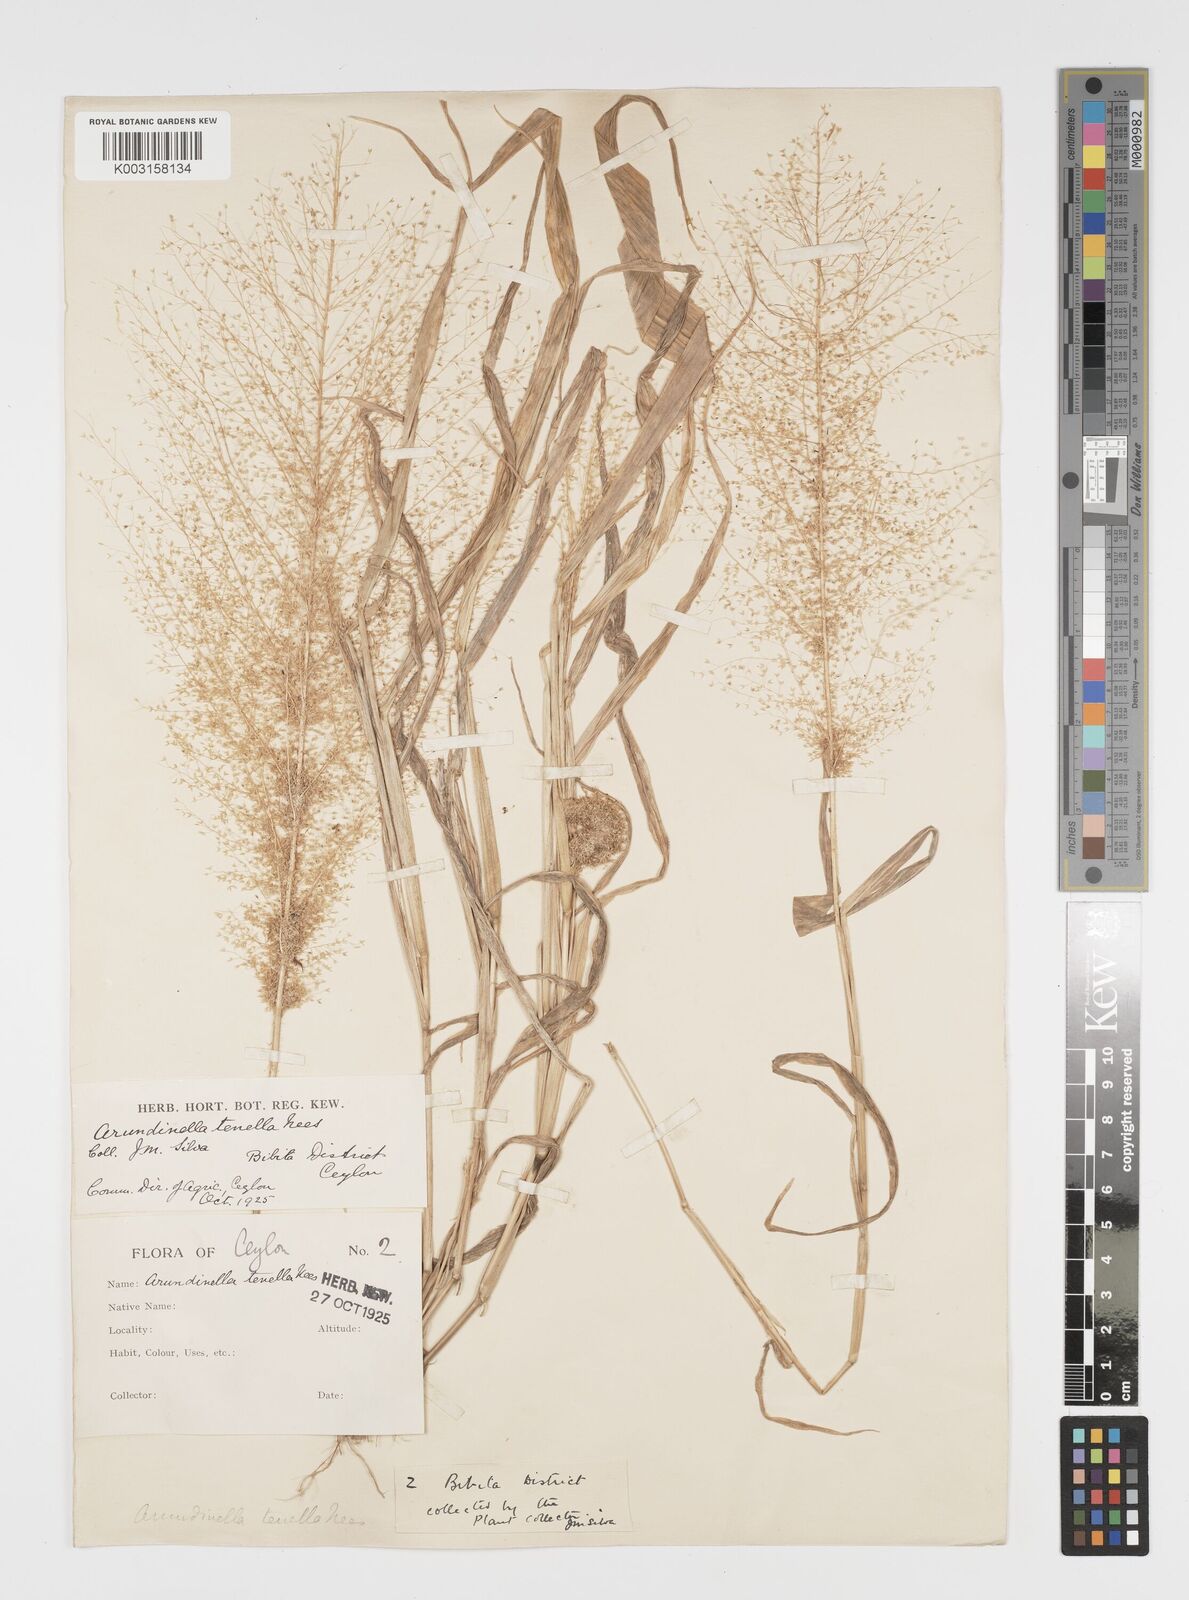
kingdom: Plantae
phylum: Tracheophyta
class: Liliopsida
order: Poales
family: Poaceae
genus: Arundinella
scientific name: Arundinella pumila
